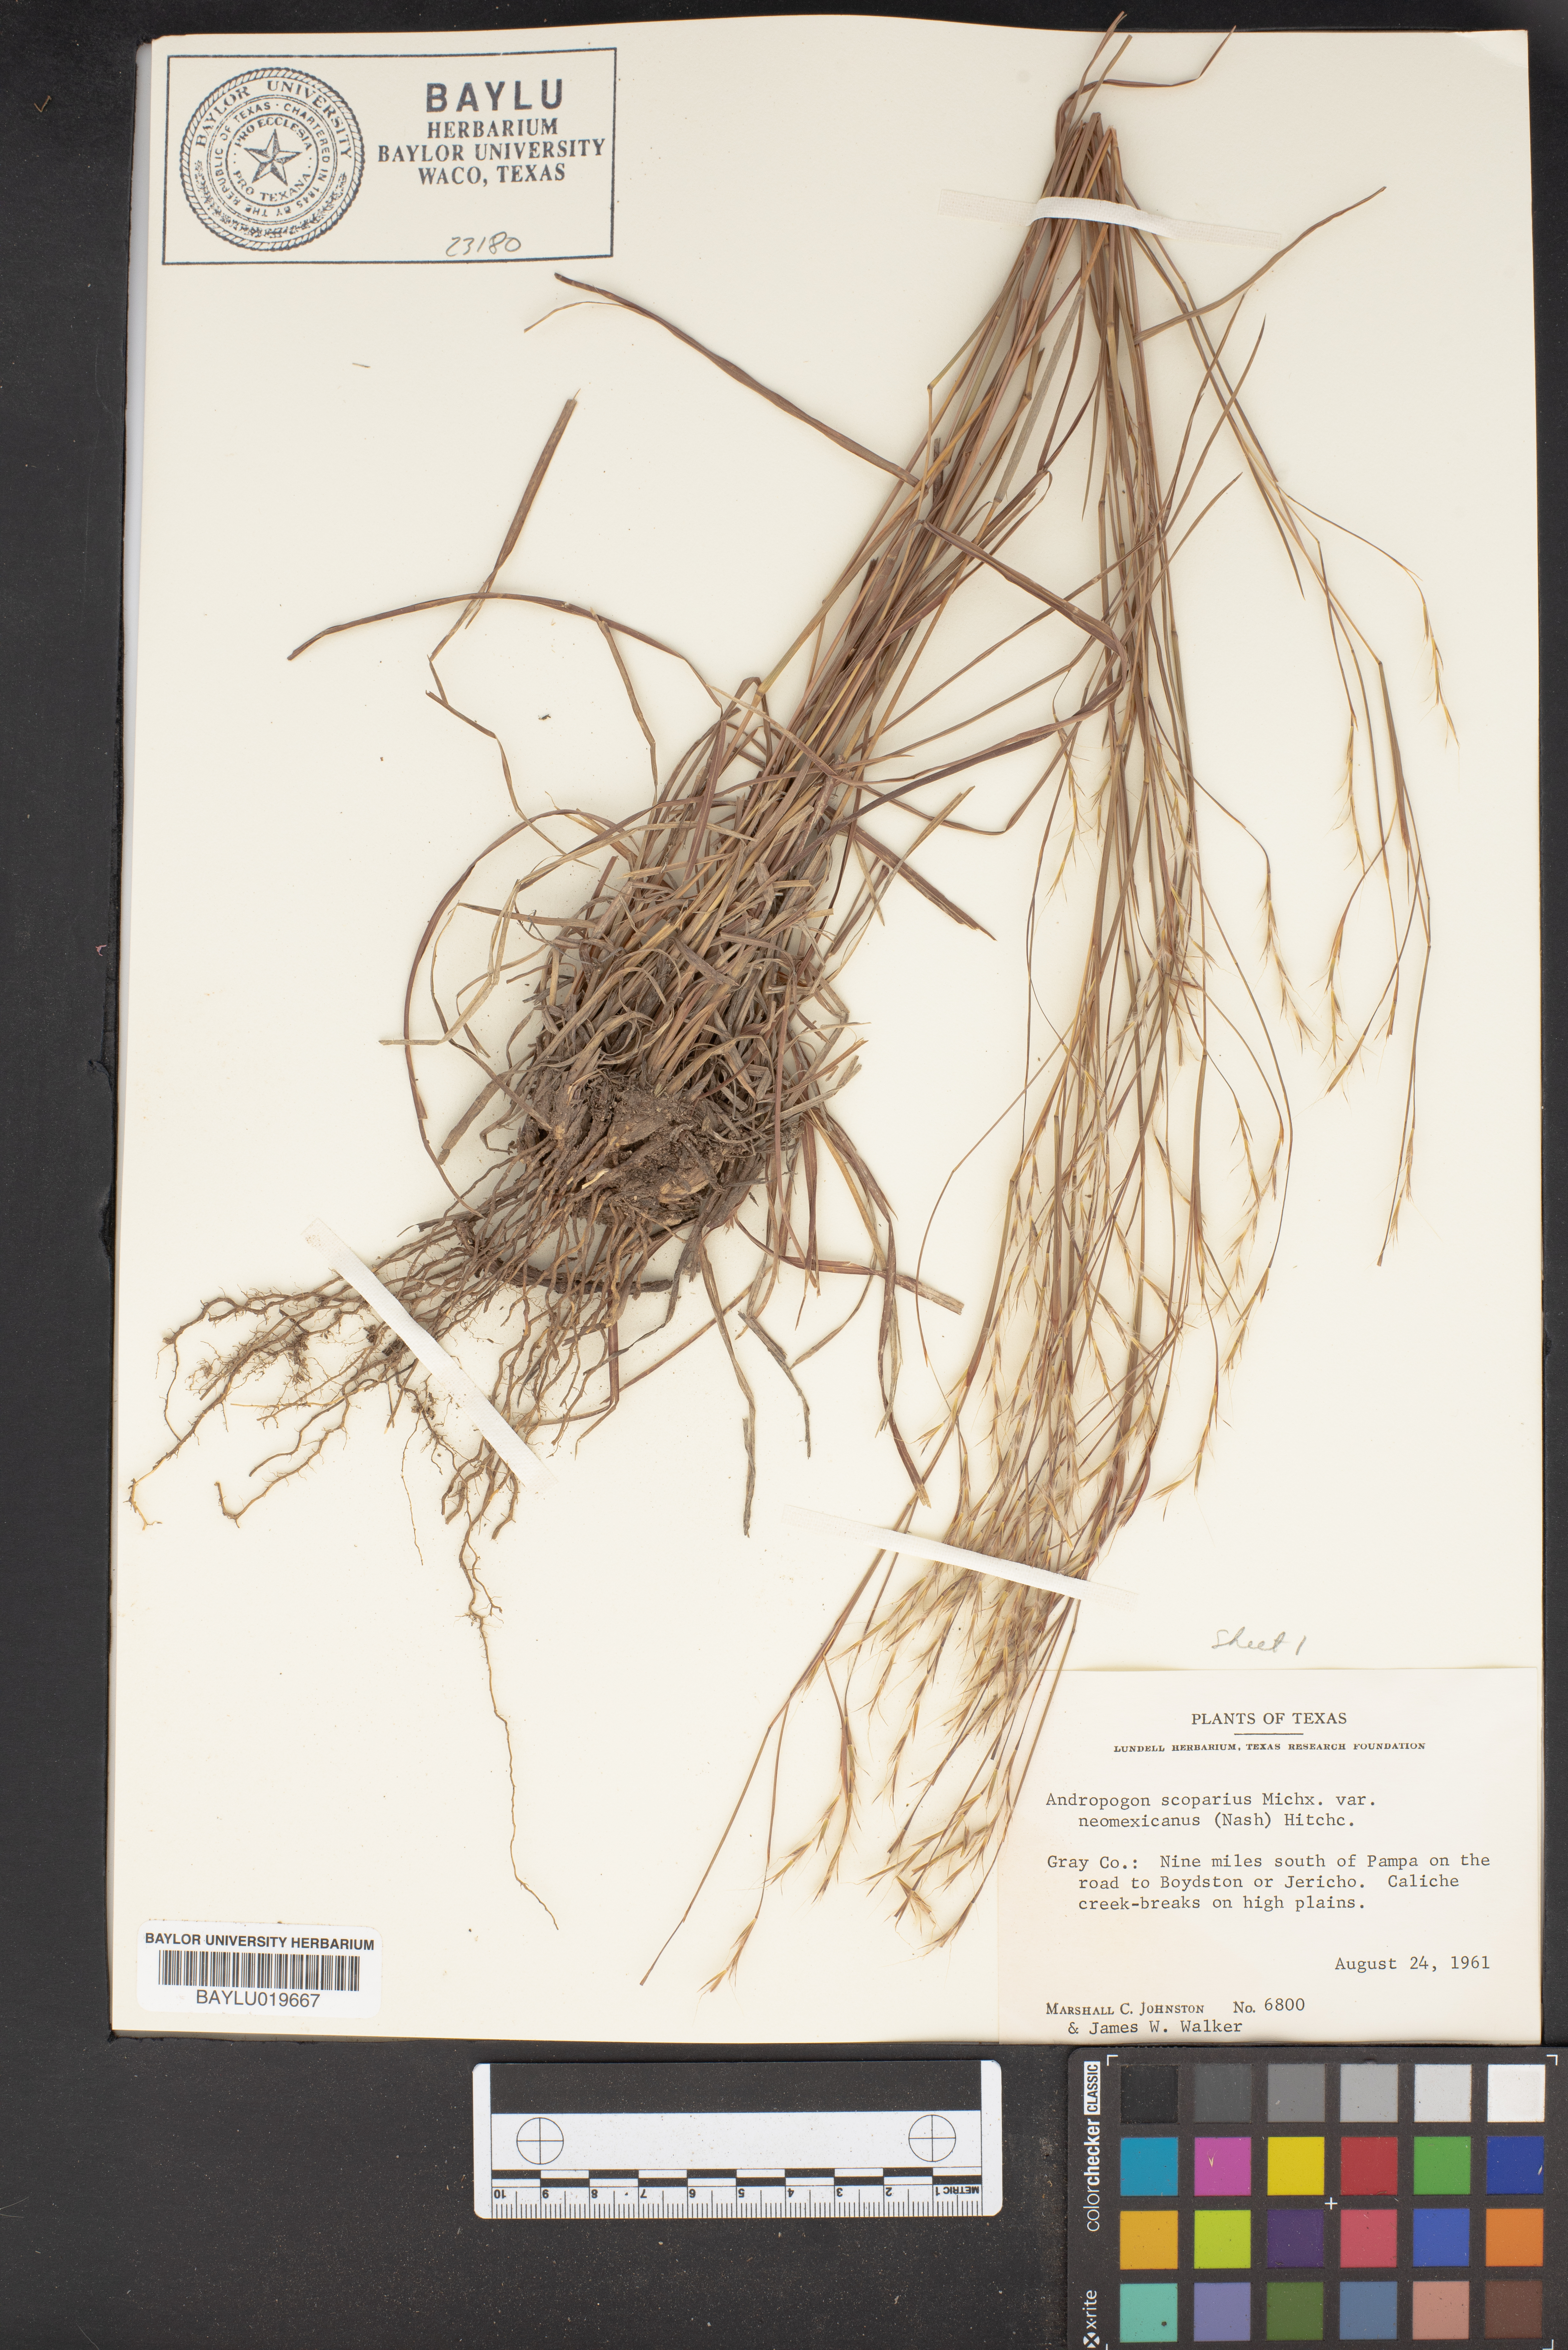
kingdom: Plantae
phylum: Tracheophyta
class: Liliopsida
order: Poales
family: Poaceae
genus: Schizachyrium
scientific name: Schizachyrium scoparium
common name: Little bluestem
